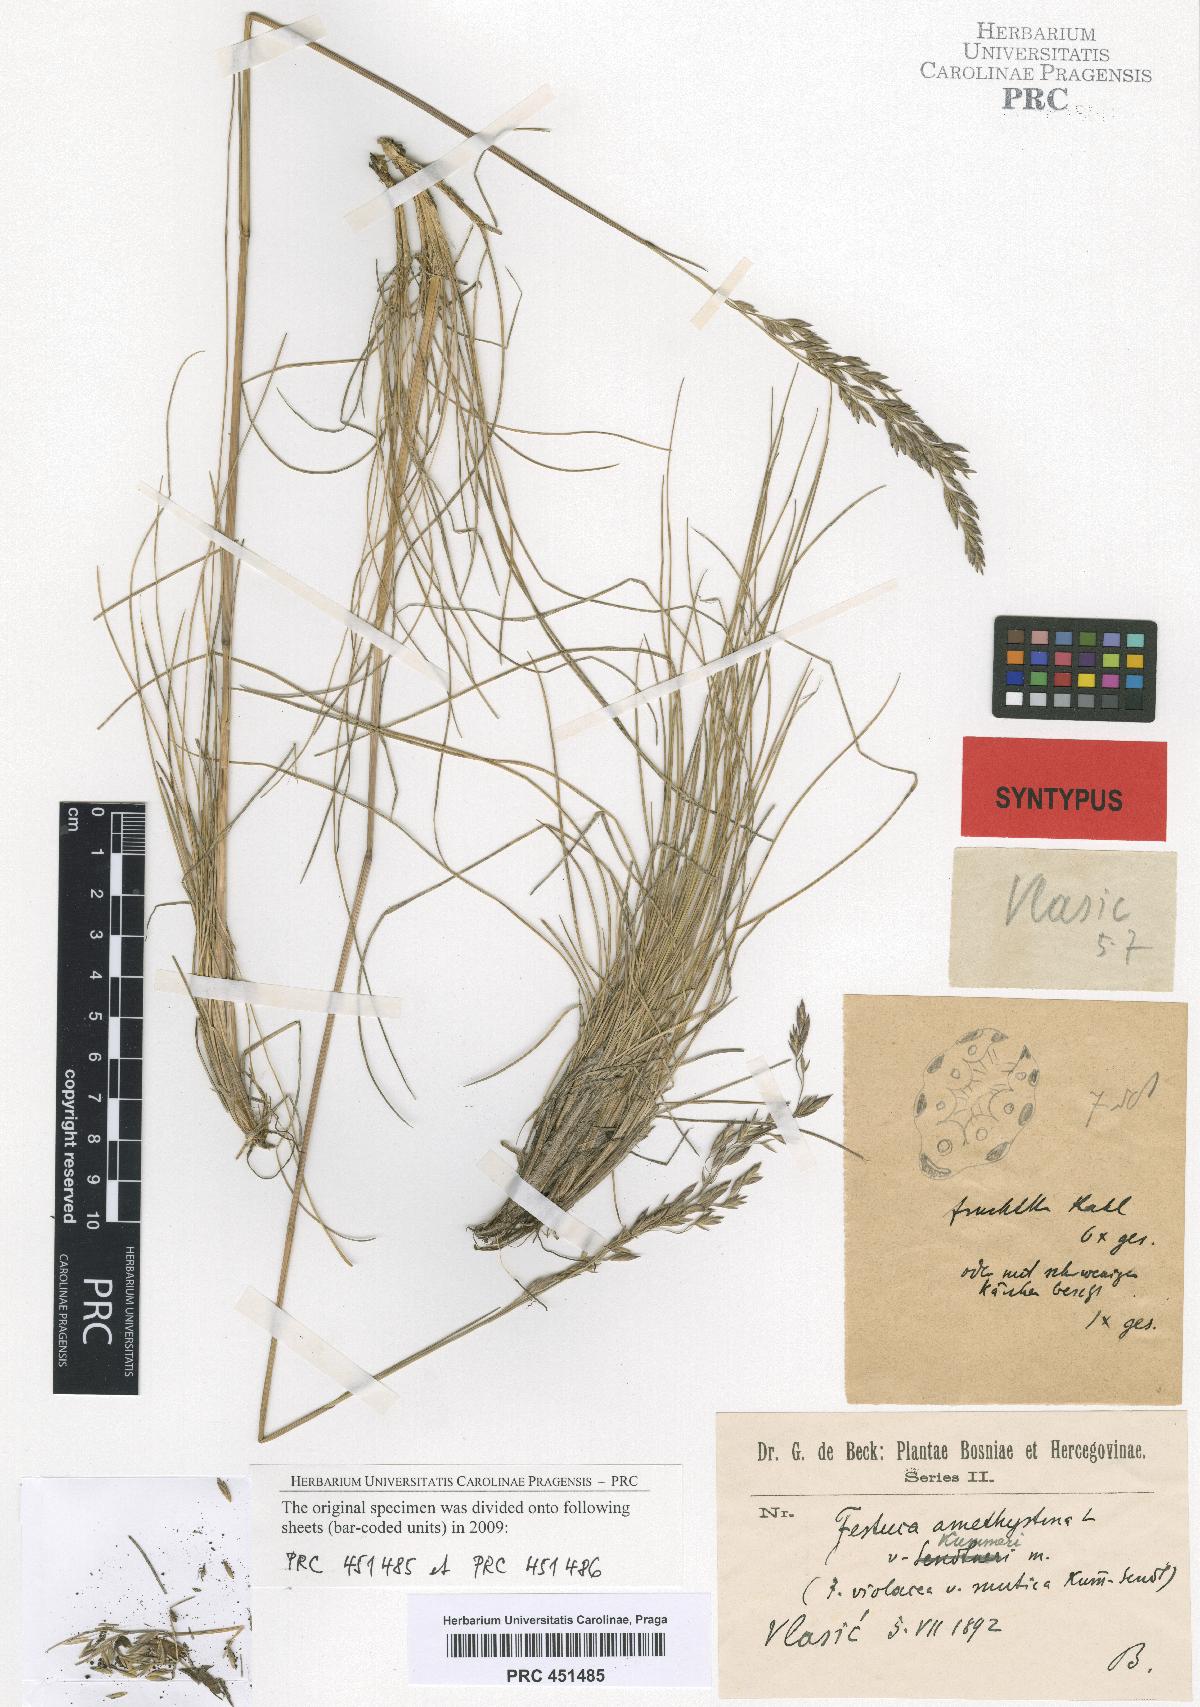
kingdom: Plantae
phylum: Tracheophyta
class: Liliopsida
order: Poales
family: Poaceae
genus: Festuca
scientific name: Festuca amethystina
